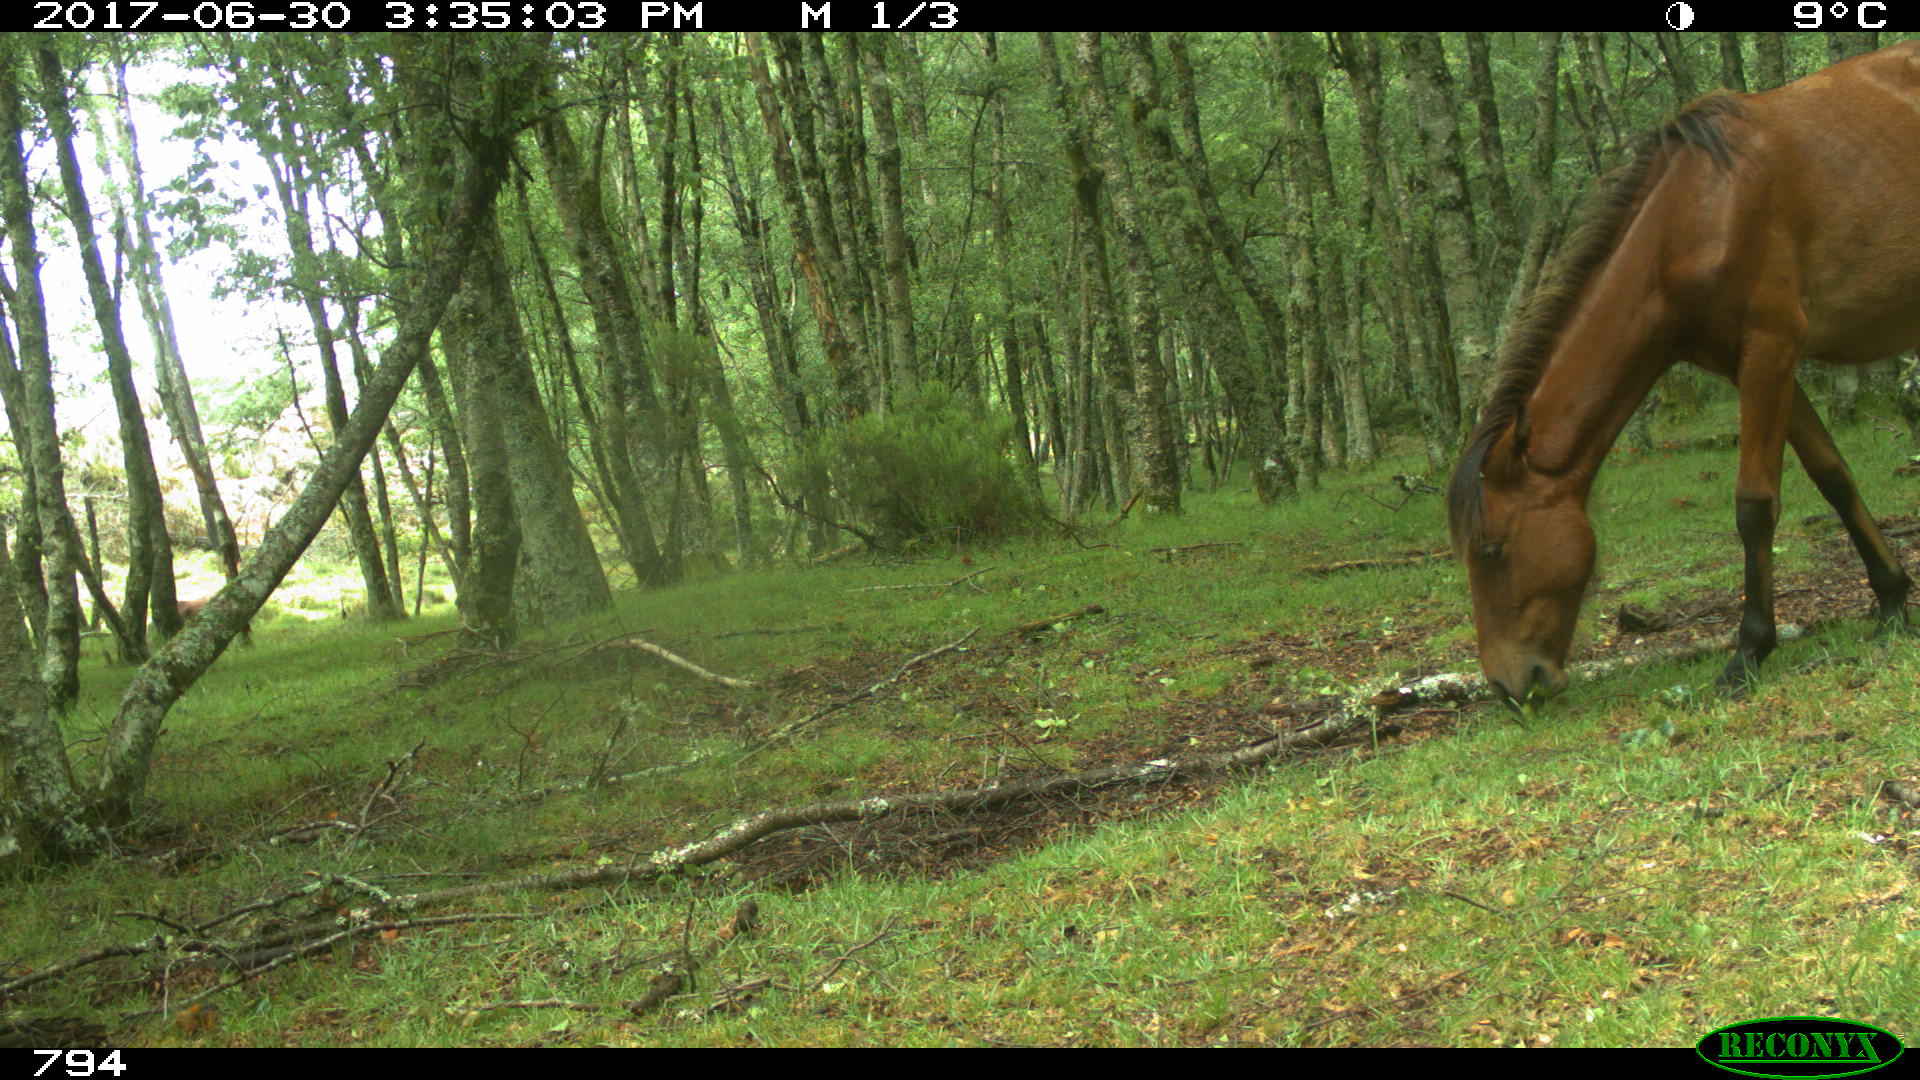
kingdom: Animalia
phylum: Chordata
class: Mammalia
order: Perissodactyla
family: Equidae
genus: Equus
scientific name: Equus caballus
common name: Horse
